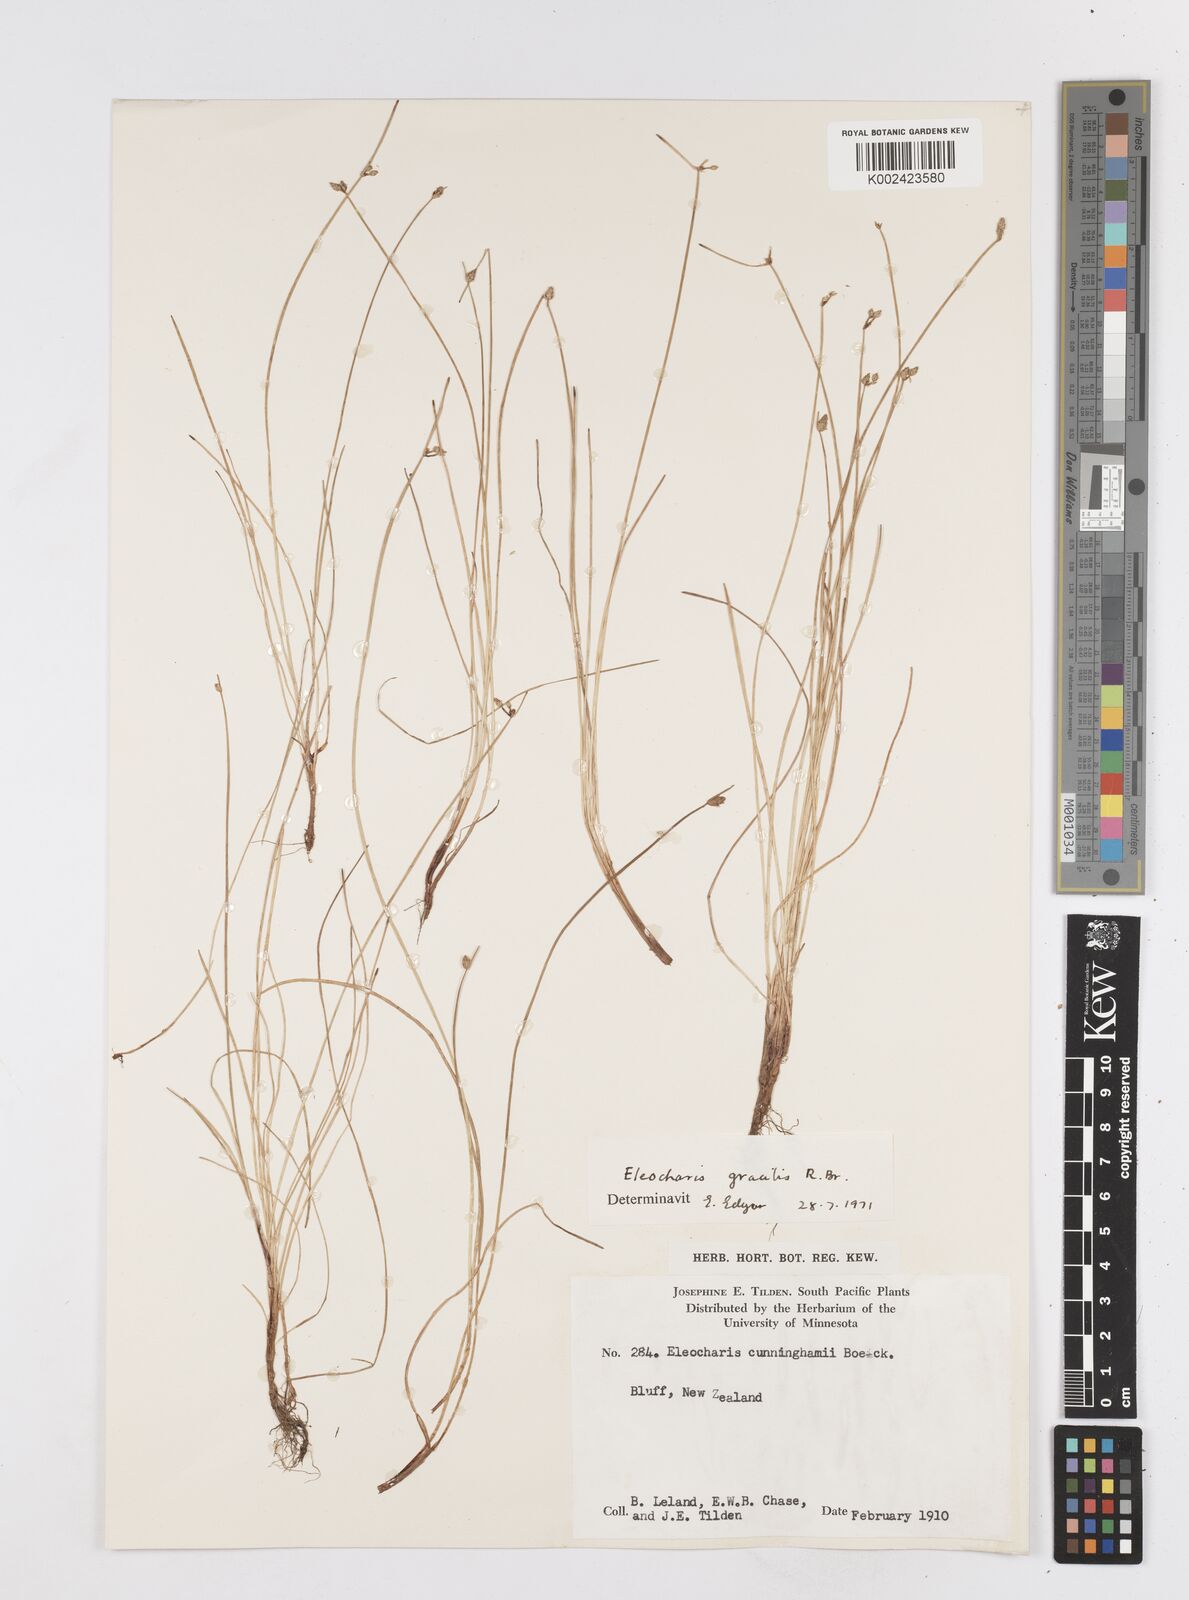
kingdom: Plantae
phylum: Tracheophyta
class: Liliopsida
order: Poales
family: Cyperaceae
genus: Eleocharis
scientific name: Eleocharis gracilis
